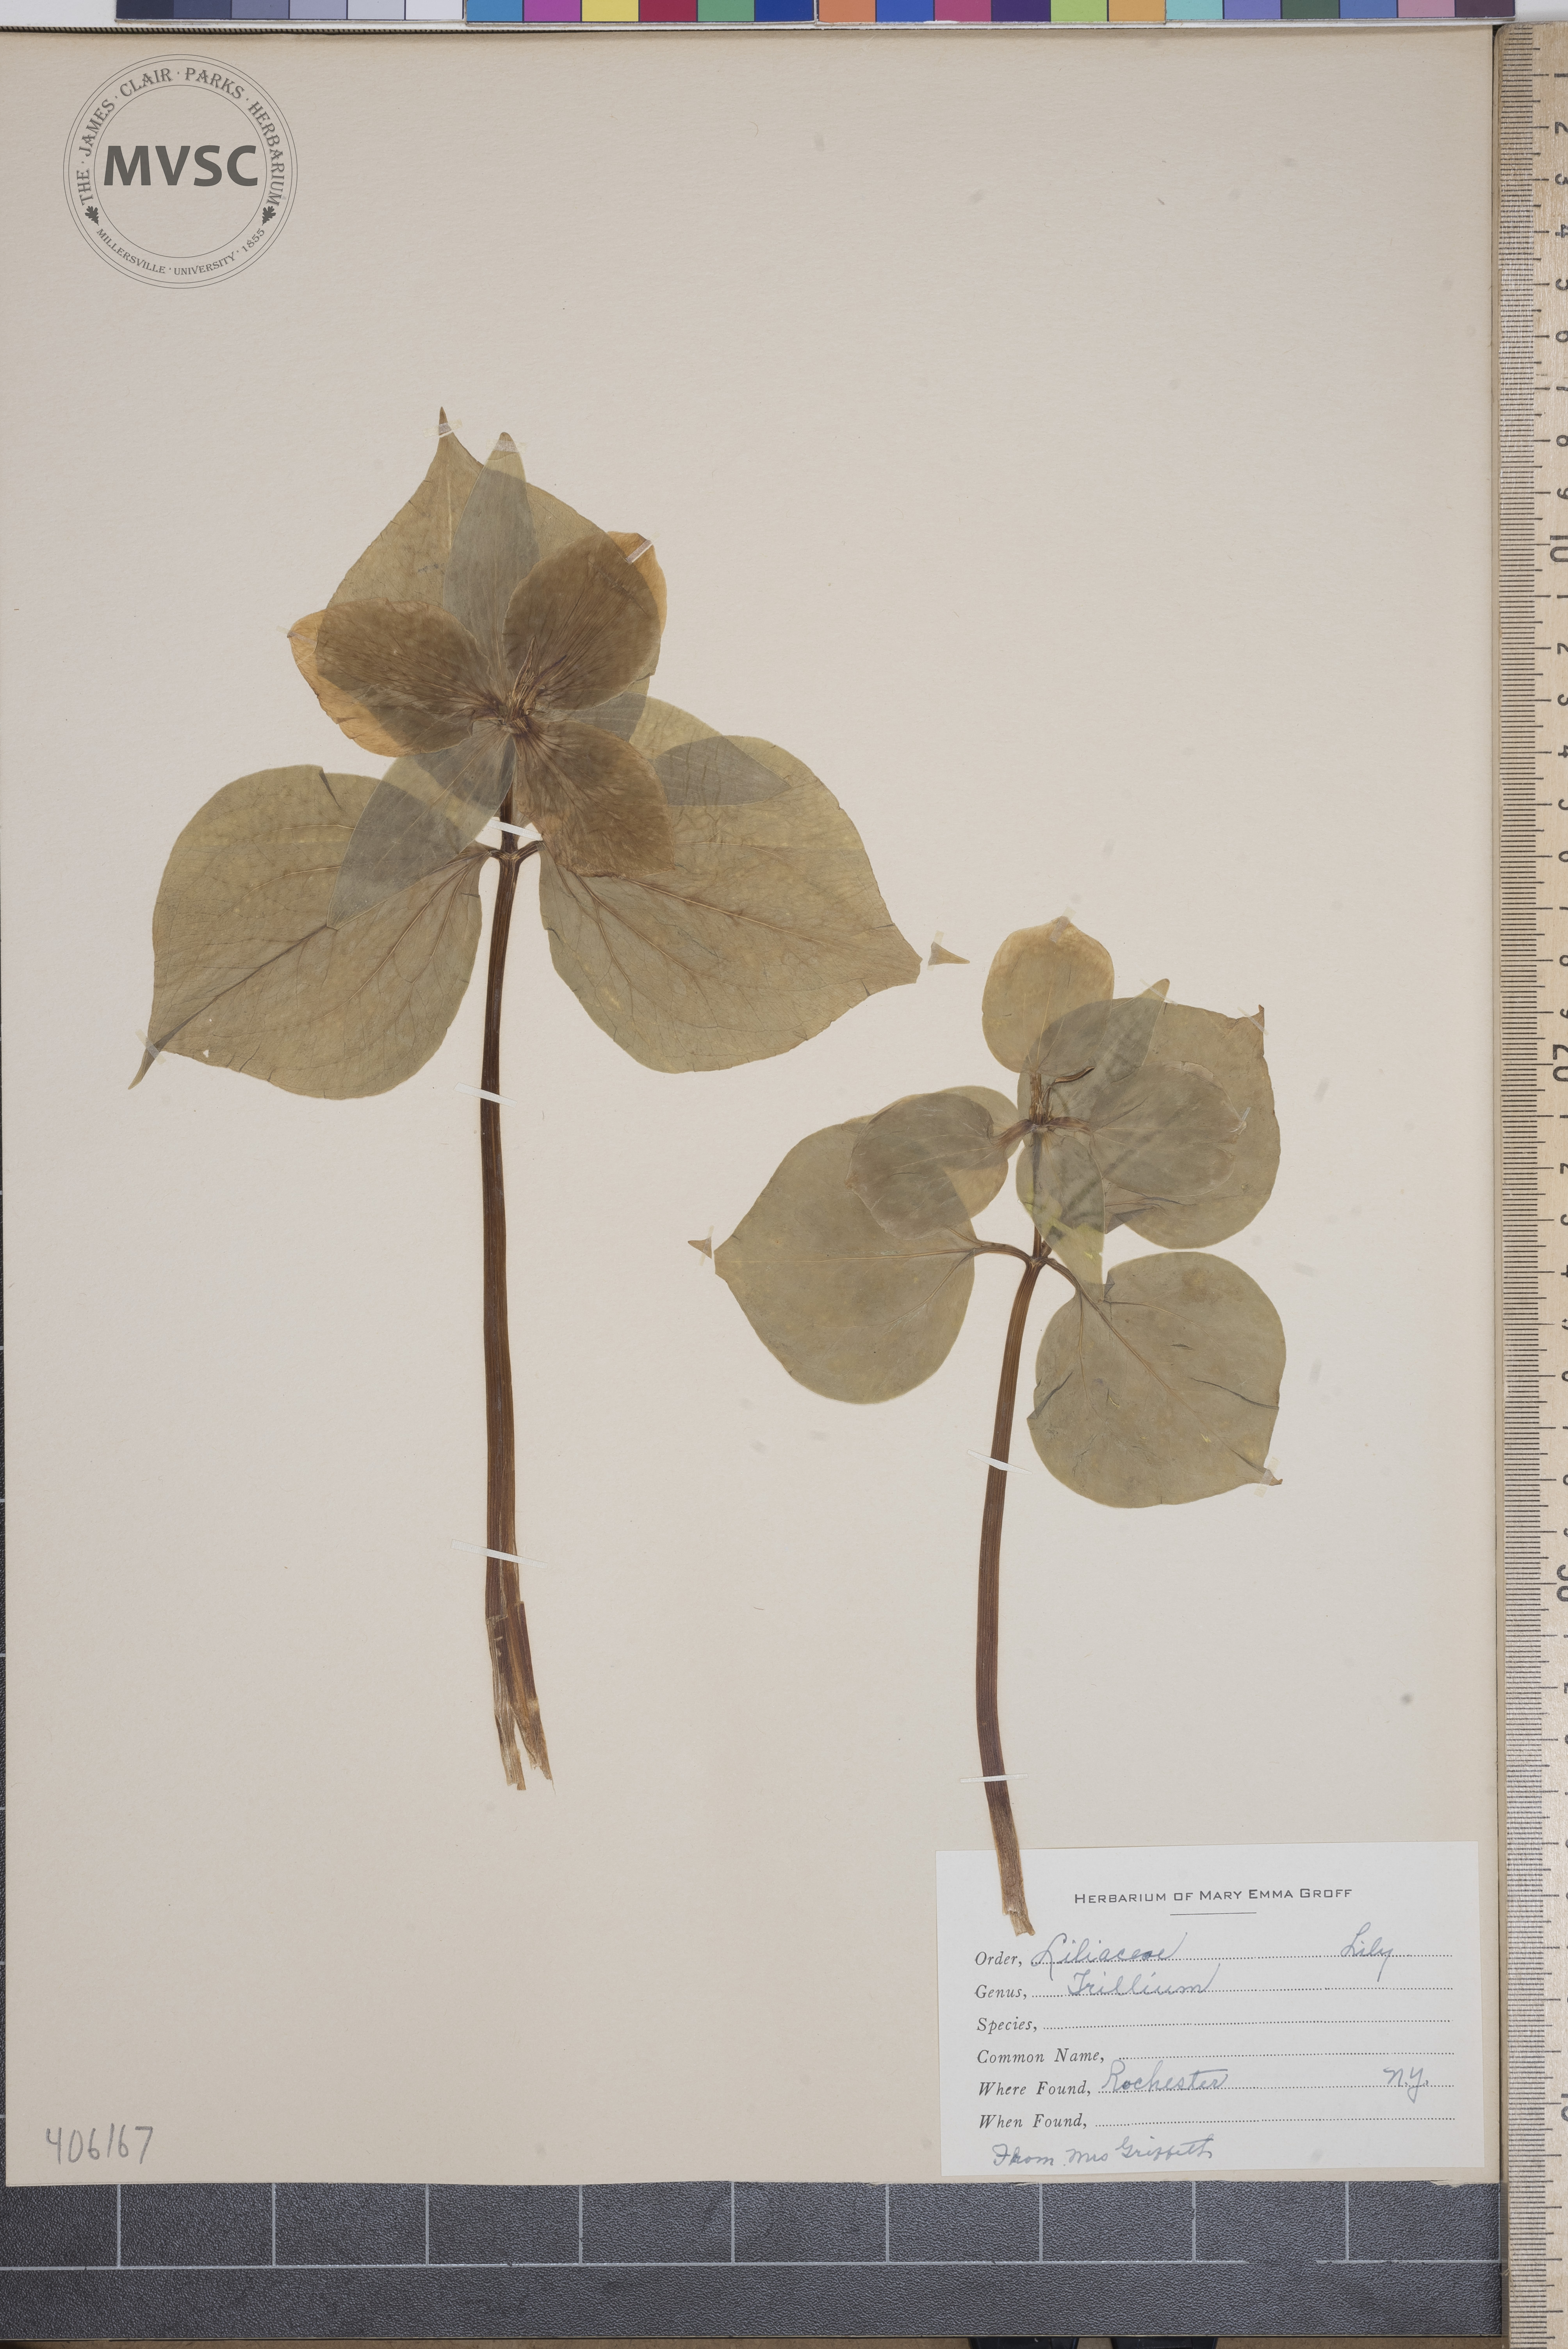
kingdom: Plantae
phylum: Tracheophyta
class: Liliopsida
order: Liliales
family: Melanthiaceae
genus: Trillium
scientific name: Trillium
